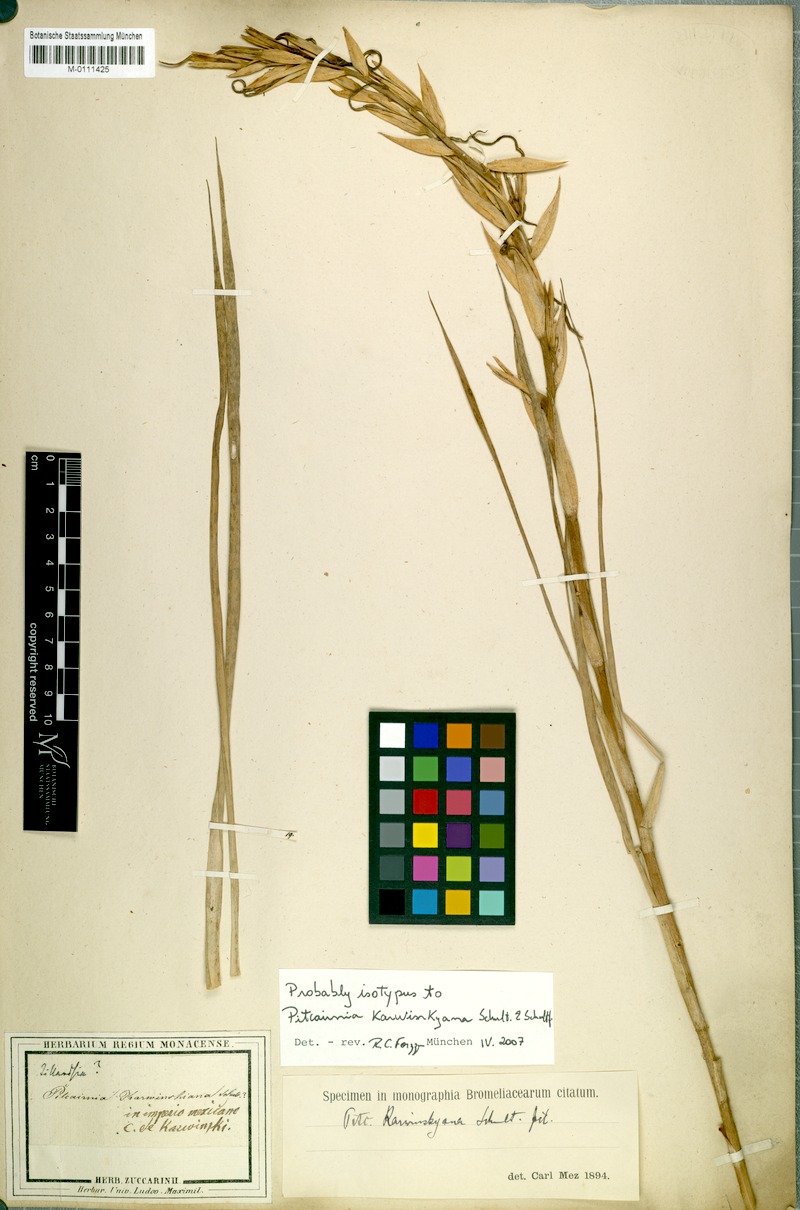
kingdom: Plantae
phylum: Tracheophyta
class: Liliopsida
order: Poales
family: Bromeliaceae
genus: Pitcairnia
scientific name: Pitcairnia karwinskyana
